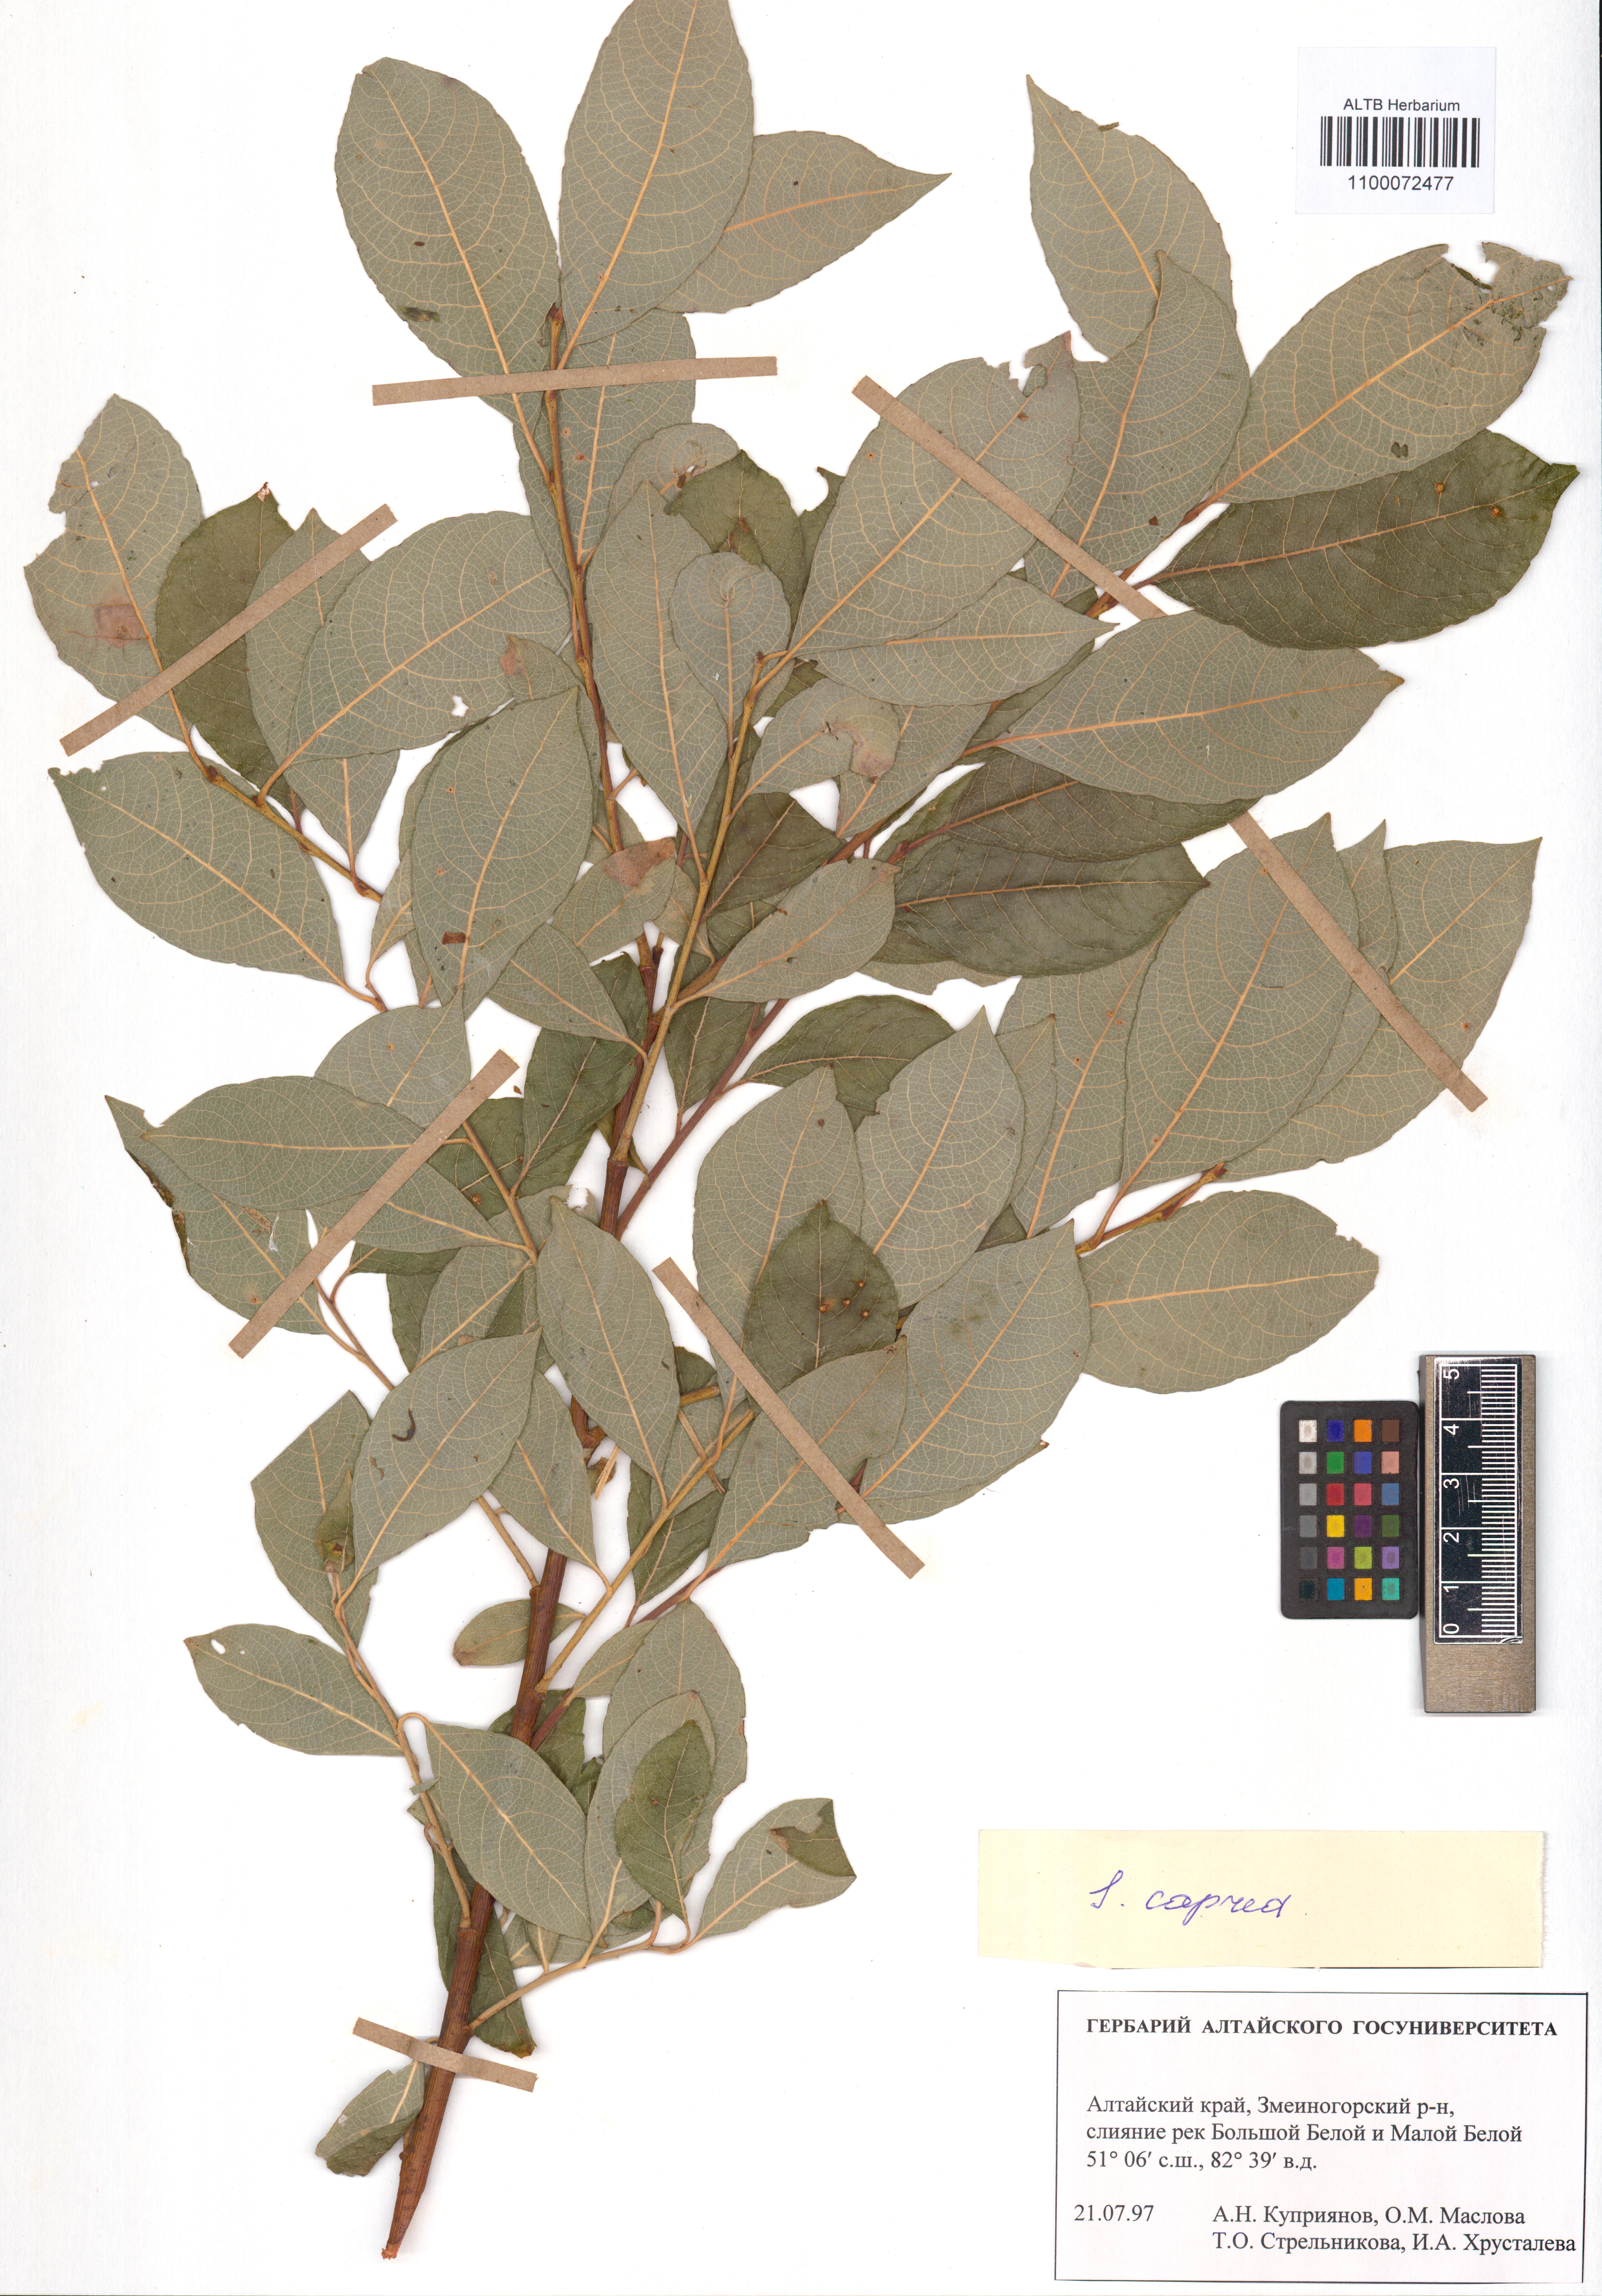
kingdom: Plantae
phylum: Tracheophyta
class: Magnoliopsida
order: Malpighiales
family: Salicaceae
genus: Salix
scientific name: Salix caprea
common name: Goat willow
